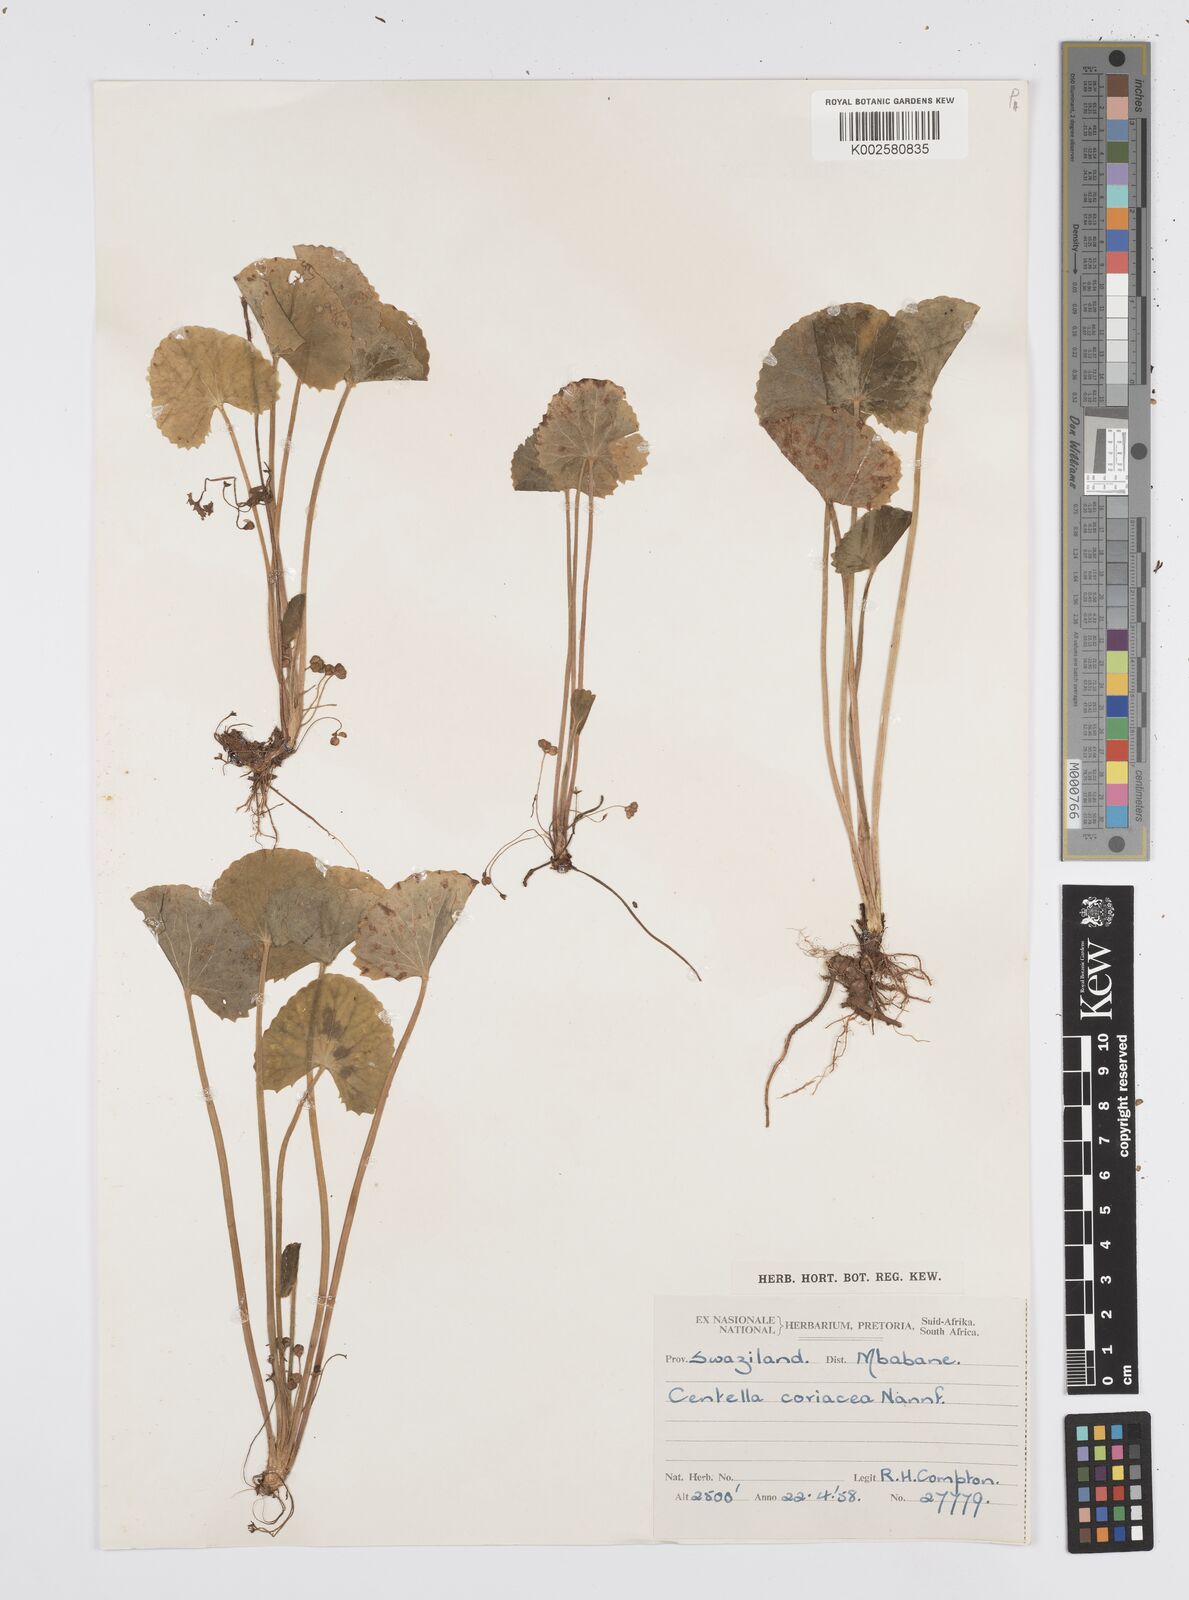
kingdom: Plantae
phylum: Tracheophyta
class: Magnoliopsida
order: Apiales
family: Apiaceae
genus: Centella
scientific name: Centella coriacea
